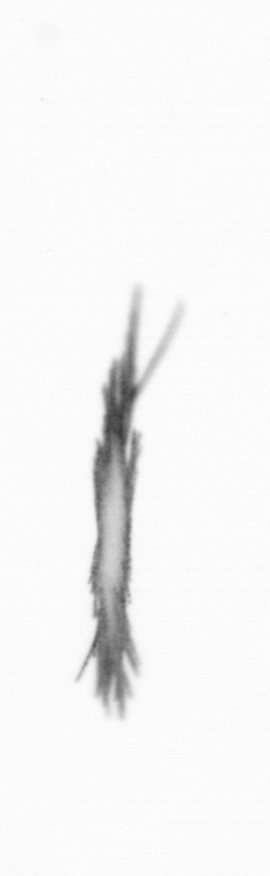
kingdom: Bacteria
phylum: Cyanobacteria
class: Cyanobacteriia
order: Cyanobacteriales
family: Microcoleaceae
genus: Trichodesmium
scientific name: Trichodesmium
